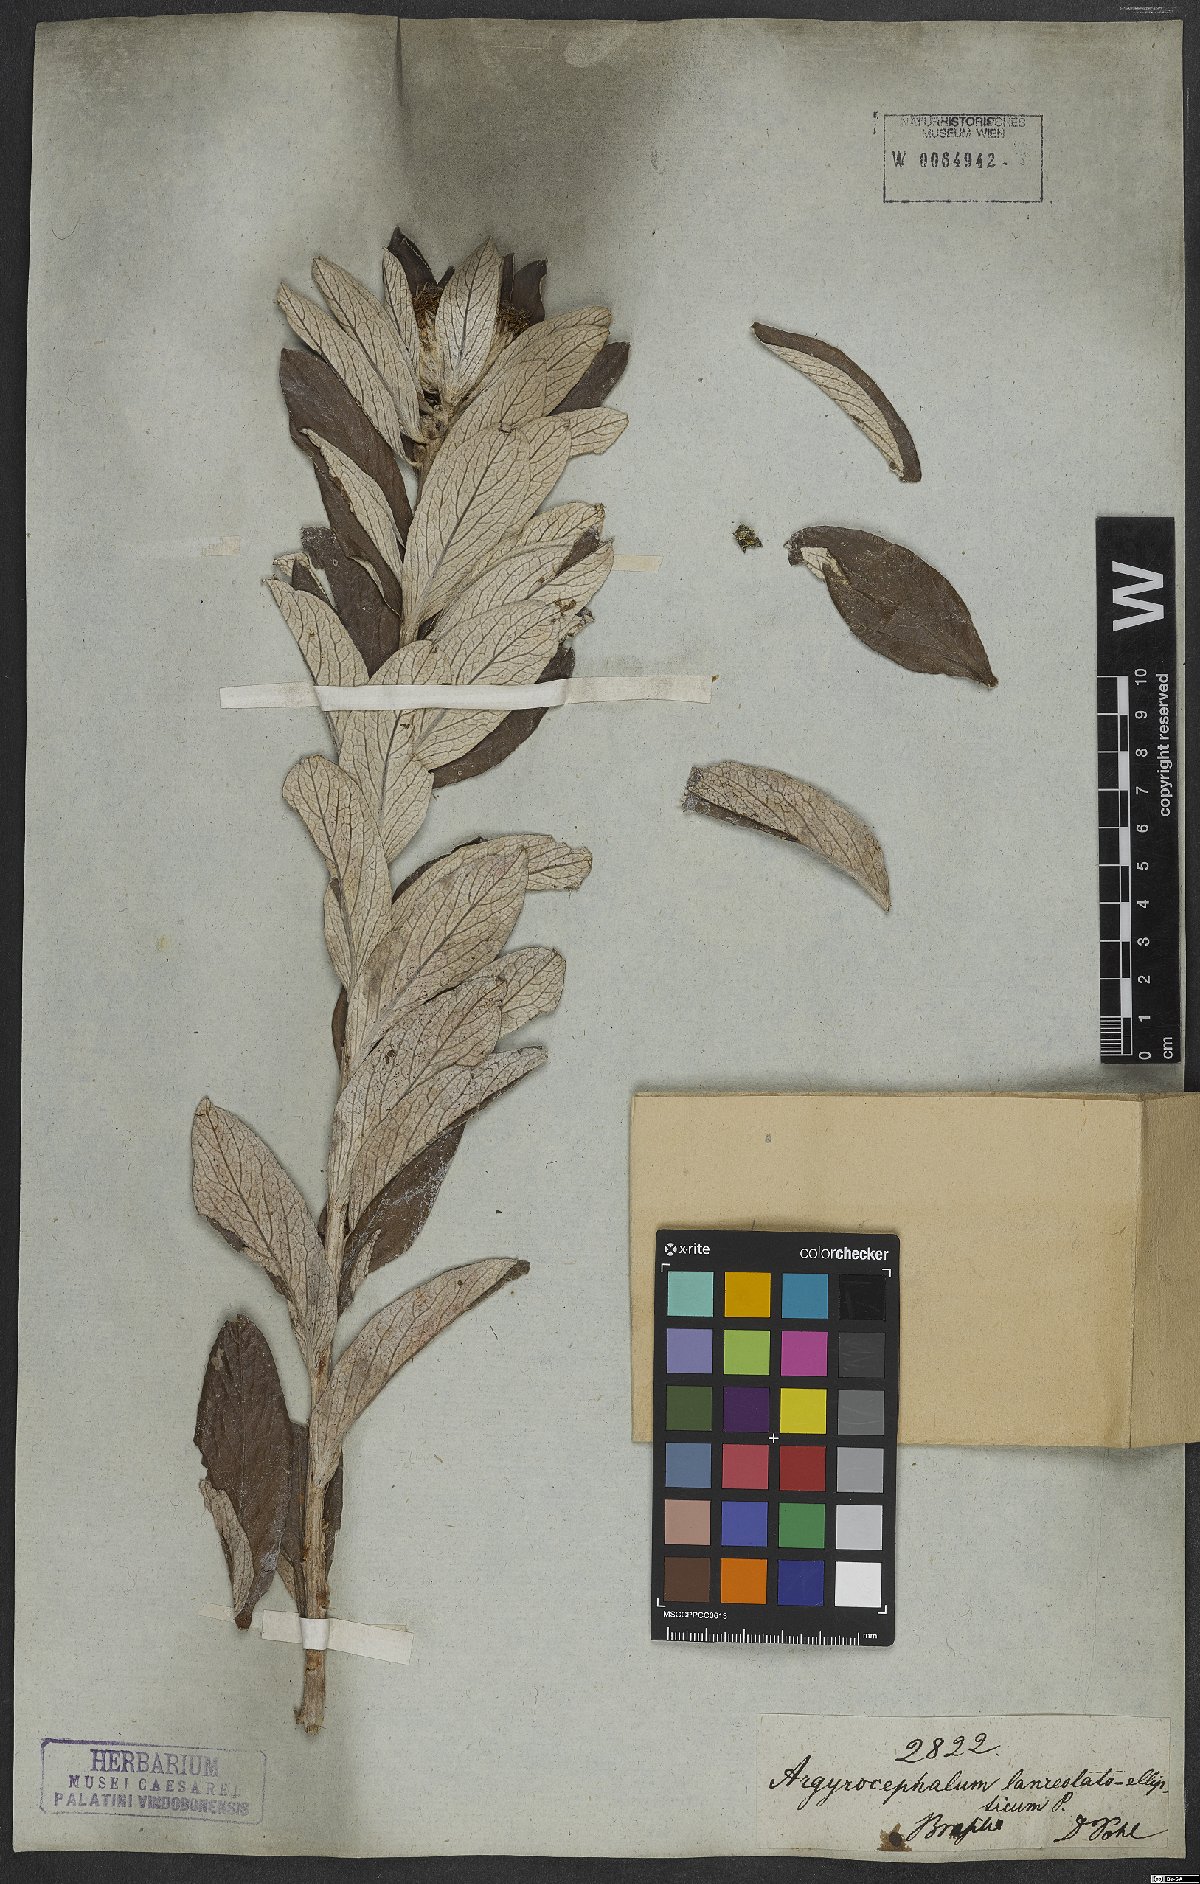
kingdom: Plantae
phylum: Tracheophyta
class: Magnoliopsida
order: Asterales
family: Asteraceae
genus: Lessingianthus
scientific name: Lessingianthus venosissimus
